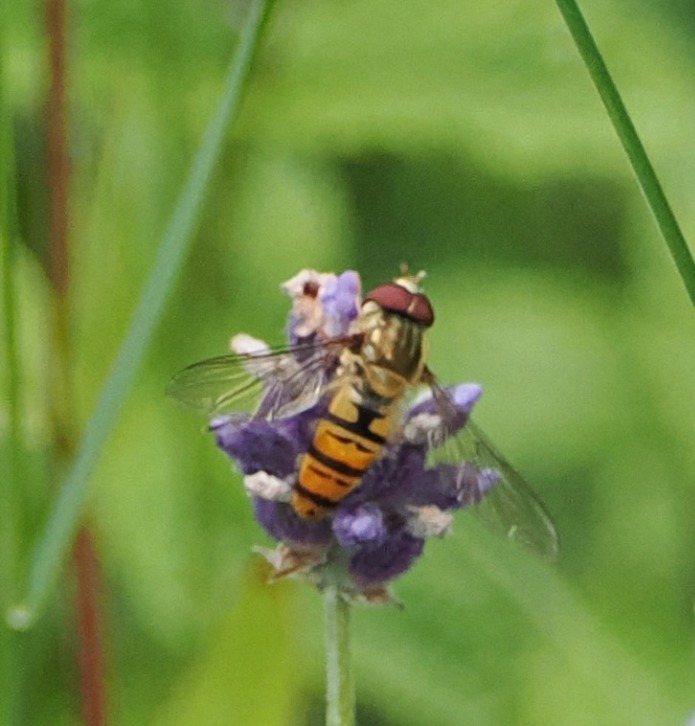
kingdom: Animalia
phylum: Arthropoda
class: Insecta
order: Diptera
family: Syrphidae
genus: Episyrphus
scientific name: Episyrphus balteatus
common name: Dobbeltbåndet svirreflue
